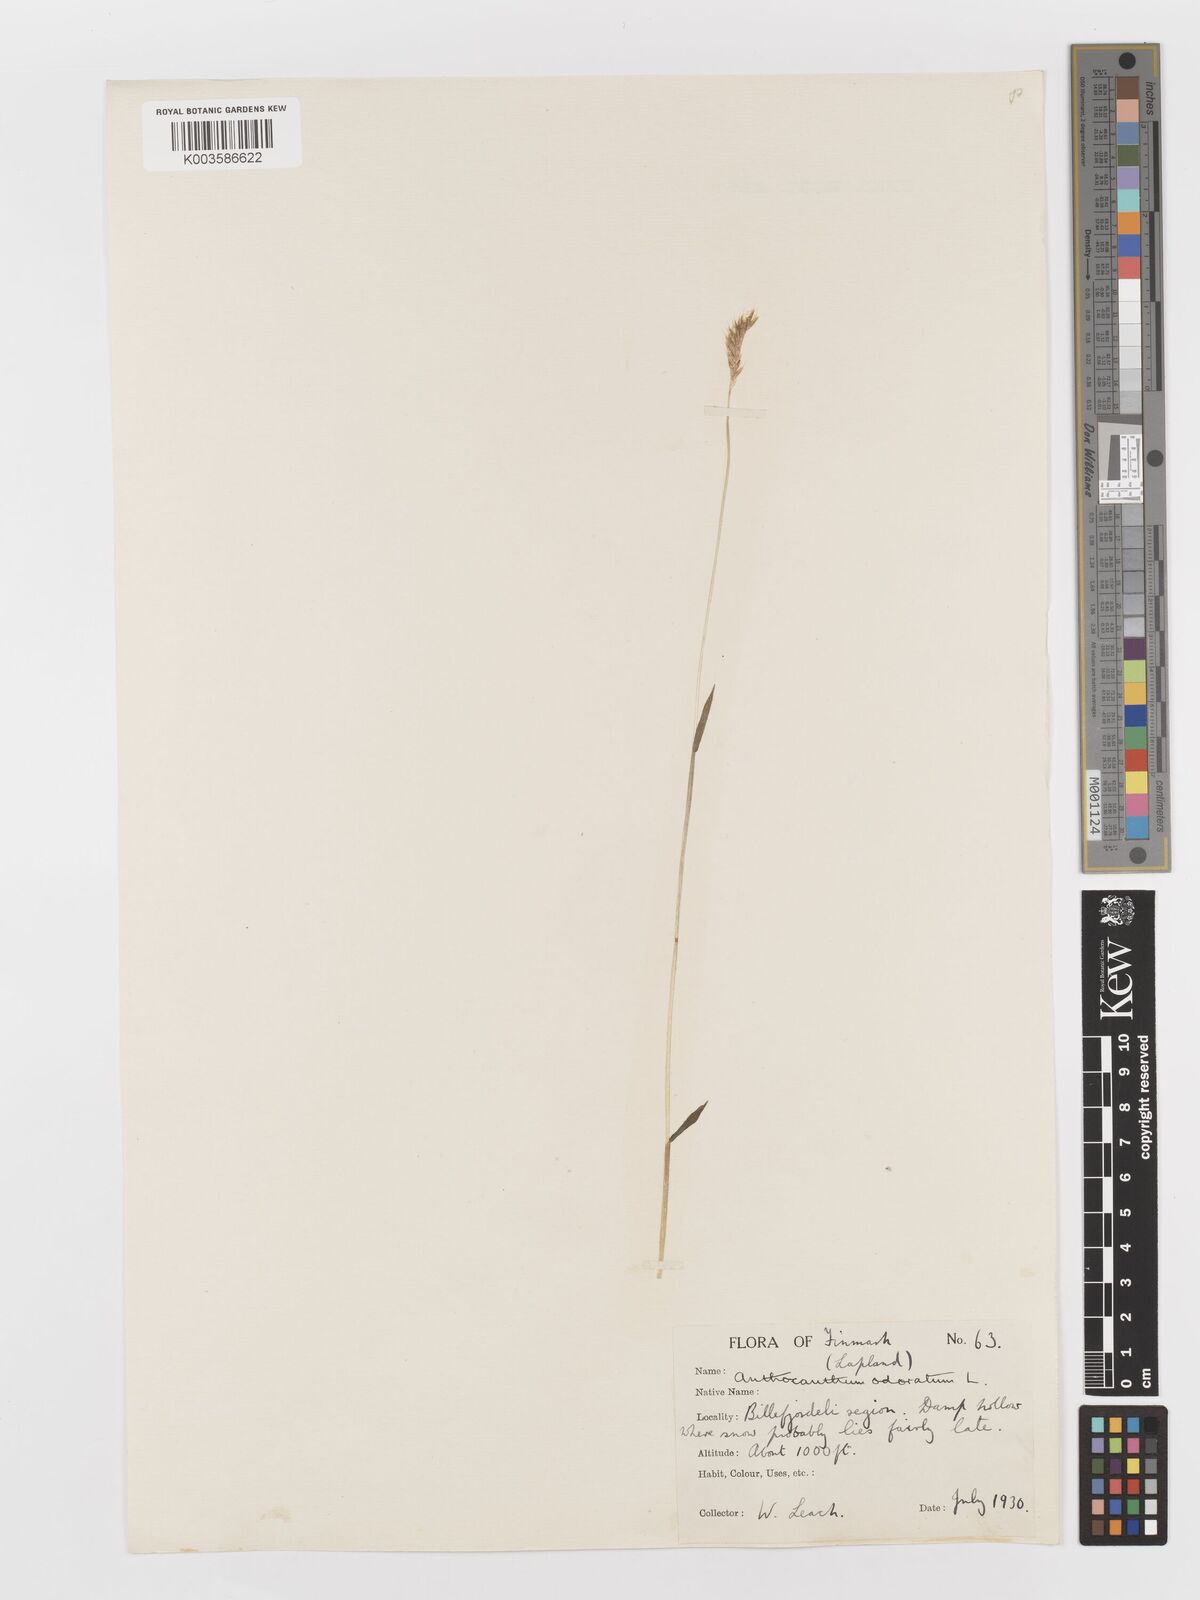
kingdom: Plantae
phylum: Tracheophyta
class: Liliopsida
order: Poales
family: Poaceae
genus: Anthoxanthum
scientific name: Anthoxanthum odoratum
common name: Sweet vernalgrass
